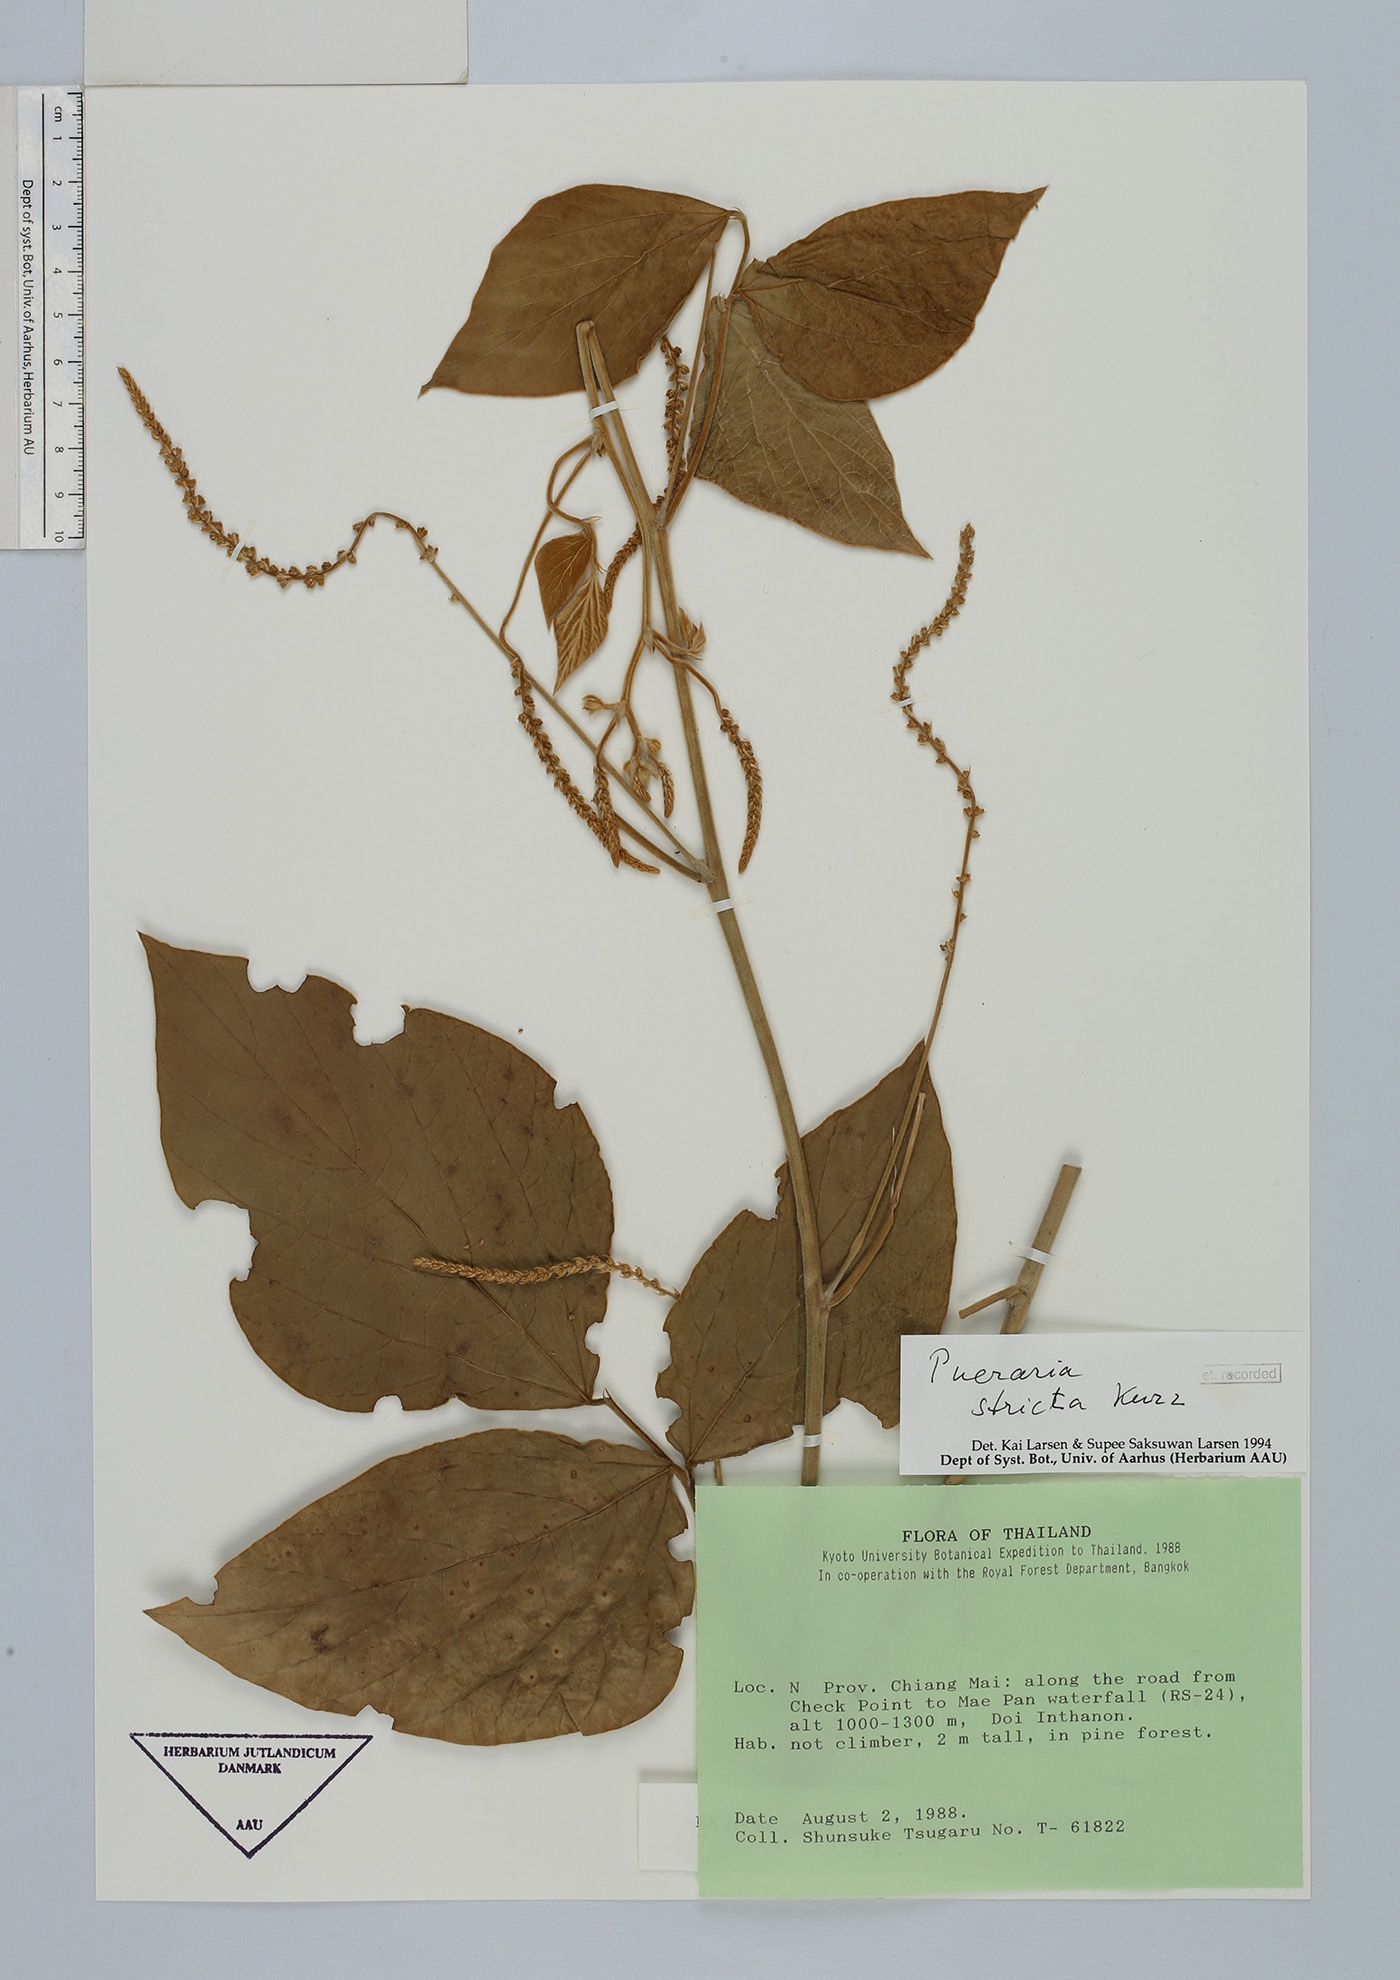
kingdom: Plantae
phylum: Tracheophyta
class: Magnoliopsida
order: Fabales
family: Fabaceae
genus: Teyleria
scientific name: Teyleria stricta
